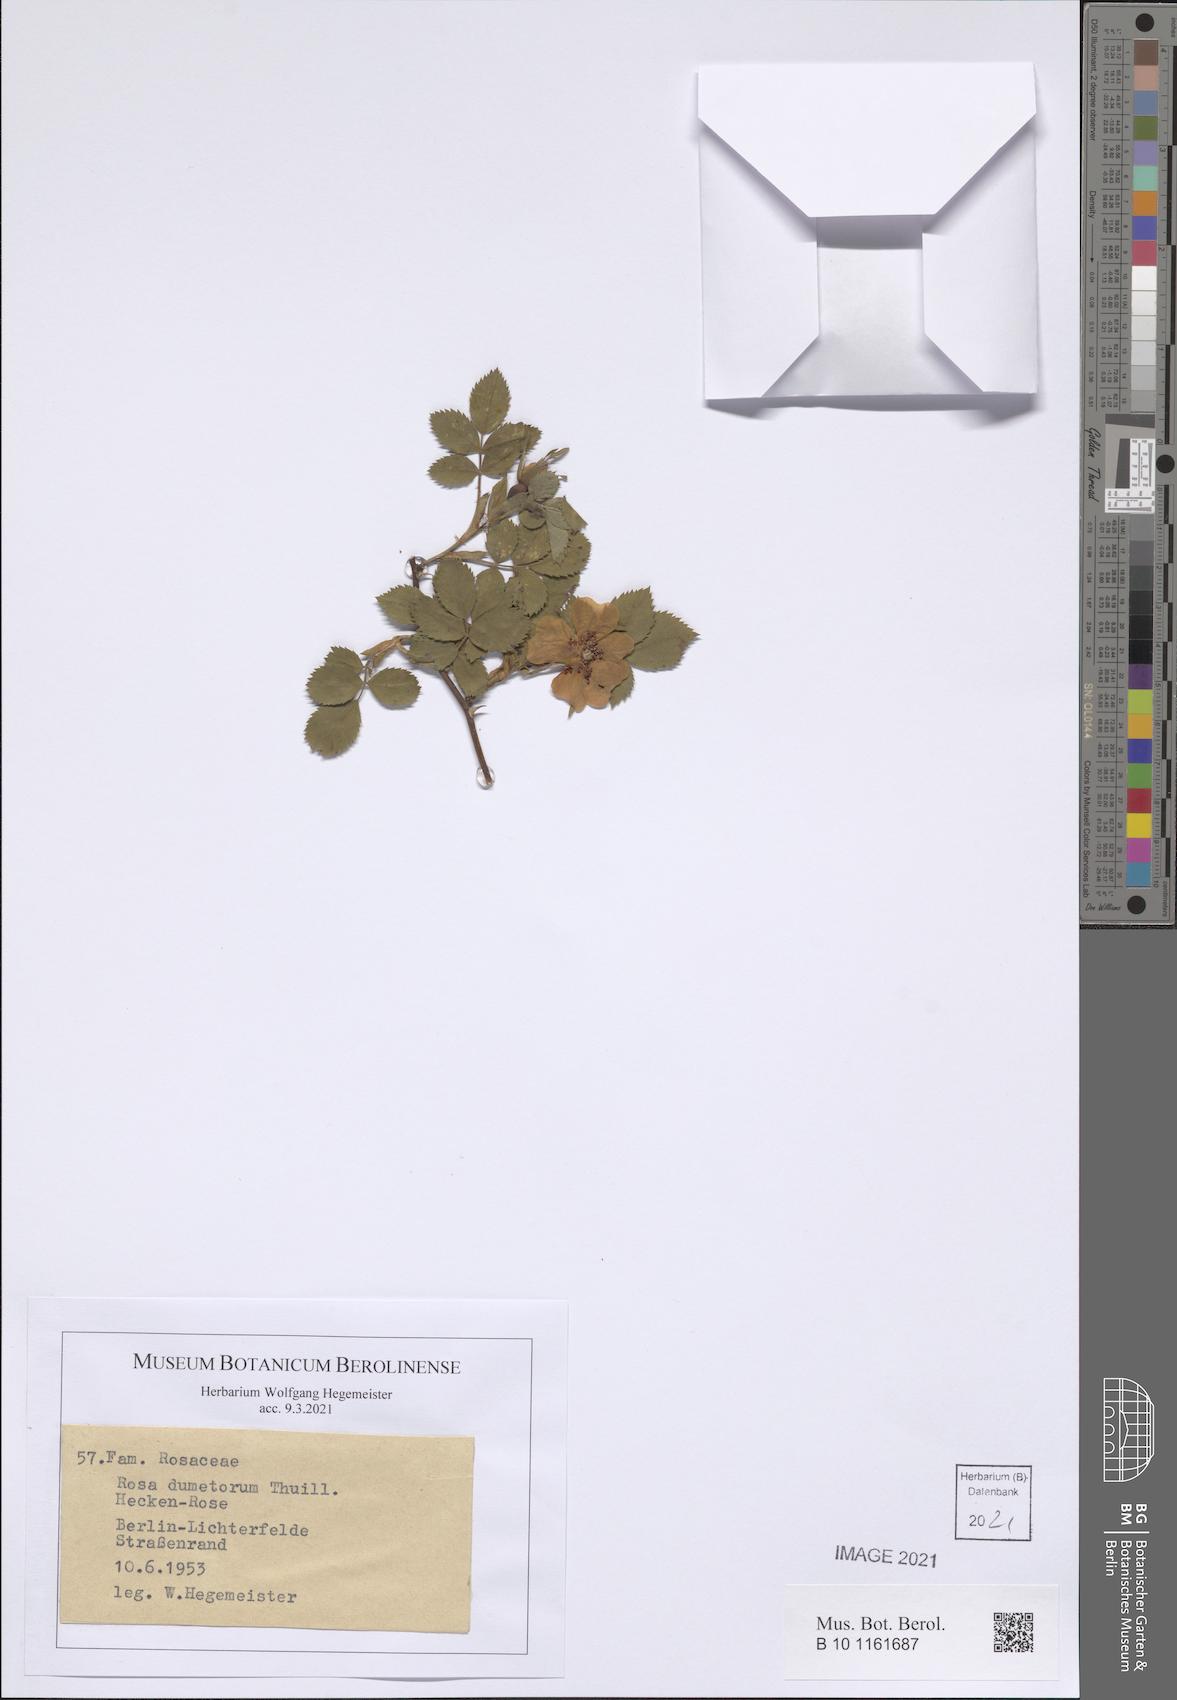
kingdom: Plantae
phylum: Tracheophyta
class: Magnoliopsida
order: Rosales
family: Rosaceae
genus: Rosa
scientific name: Rosa corymbifera
